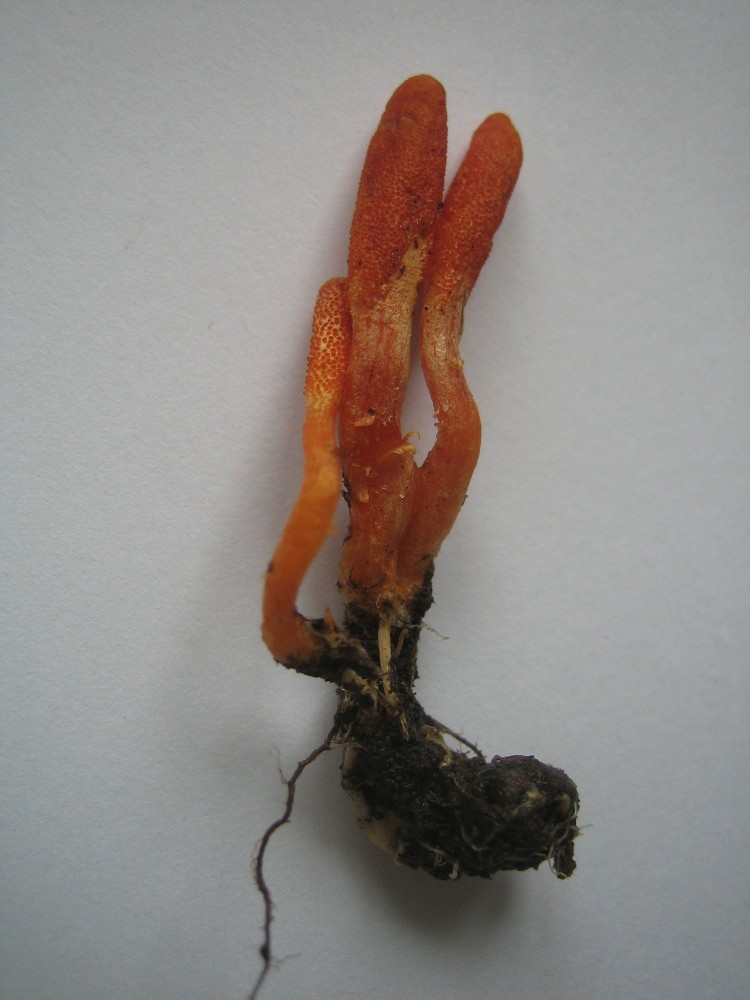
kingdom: Fungi
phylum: Ascomycota
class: Sordariomycetes
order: Hypocreales
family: Cordycipitaceae
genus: Cordyceps
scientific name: Cordyceps militaris
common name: puppe-snyltekølle
